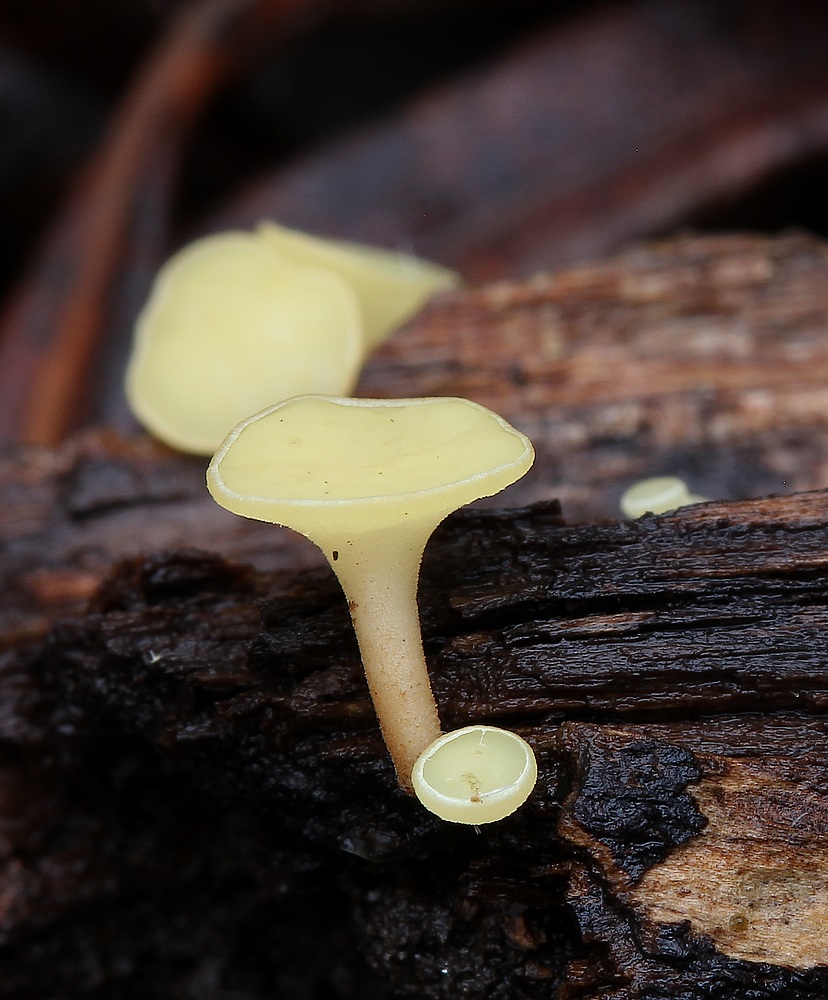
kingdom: Fungi
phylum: Ascomycota
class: Leotiomycetes
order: Helotiales
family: Helotiaceae
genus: Hymenoscyphus
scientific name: Hymenoscyphus
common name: stilkskive
